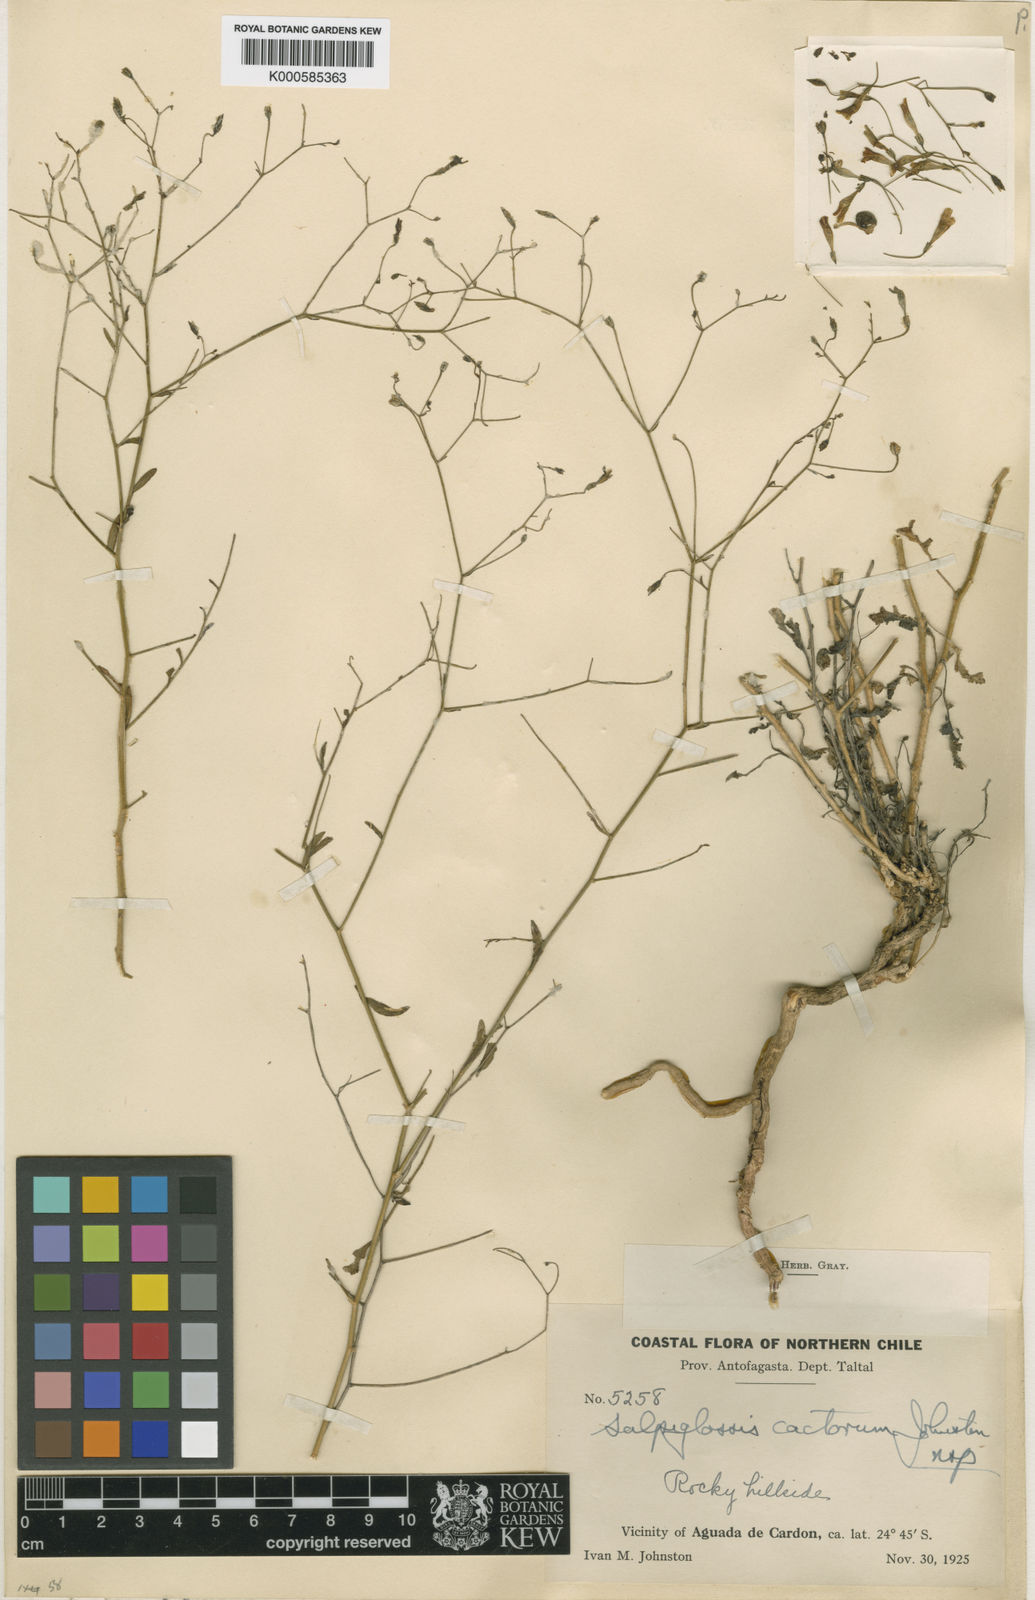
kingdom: Plantae
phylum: Tracheophyta
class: Magnoliopsida
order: Solanales
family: Solanaceae
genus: Reyesia
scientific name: Reyesia cactorum
